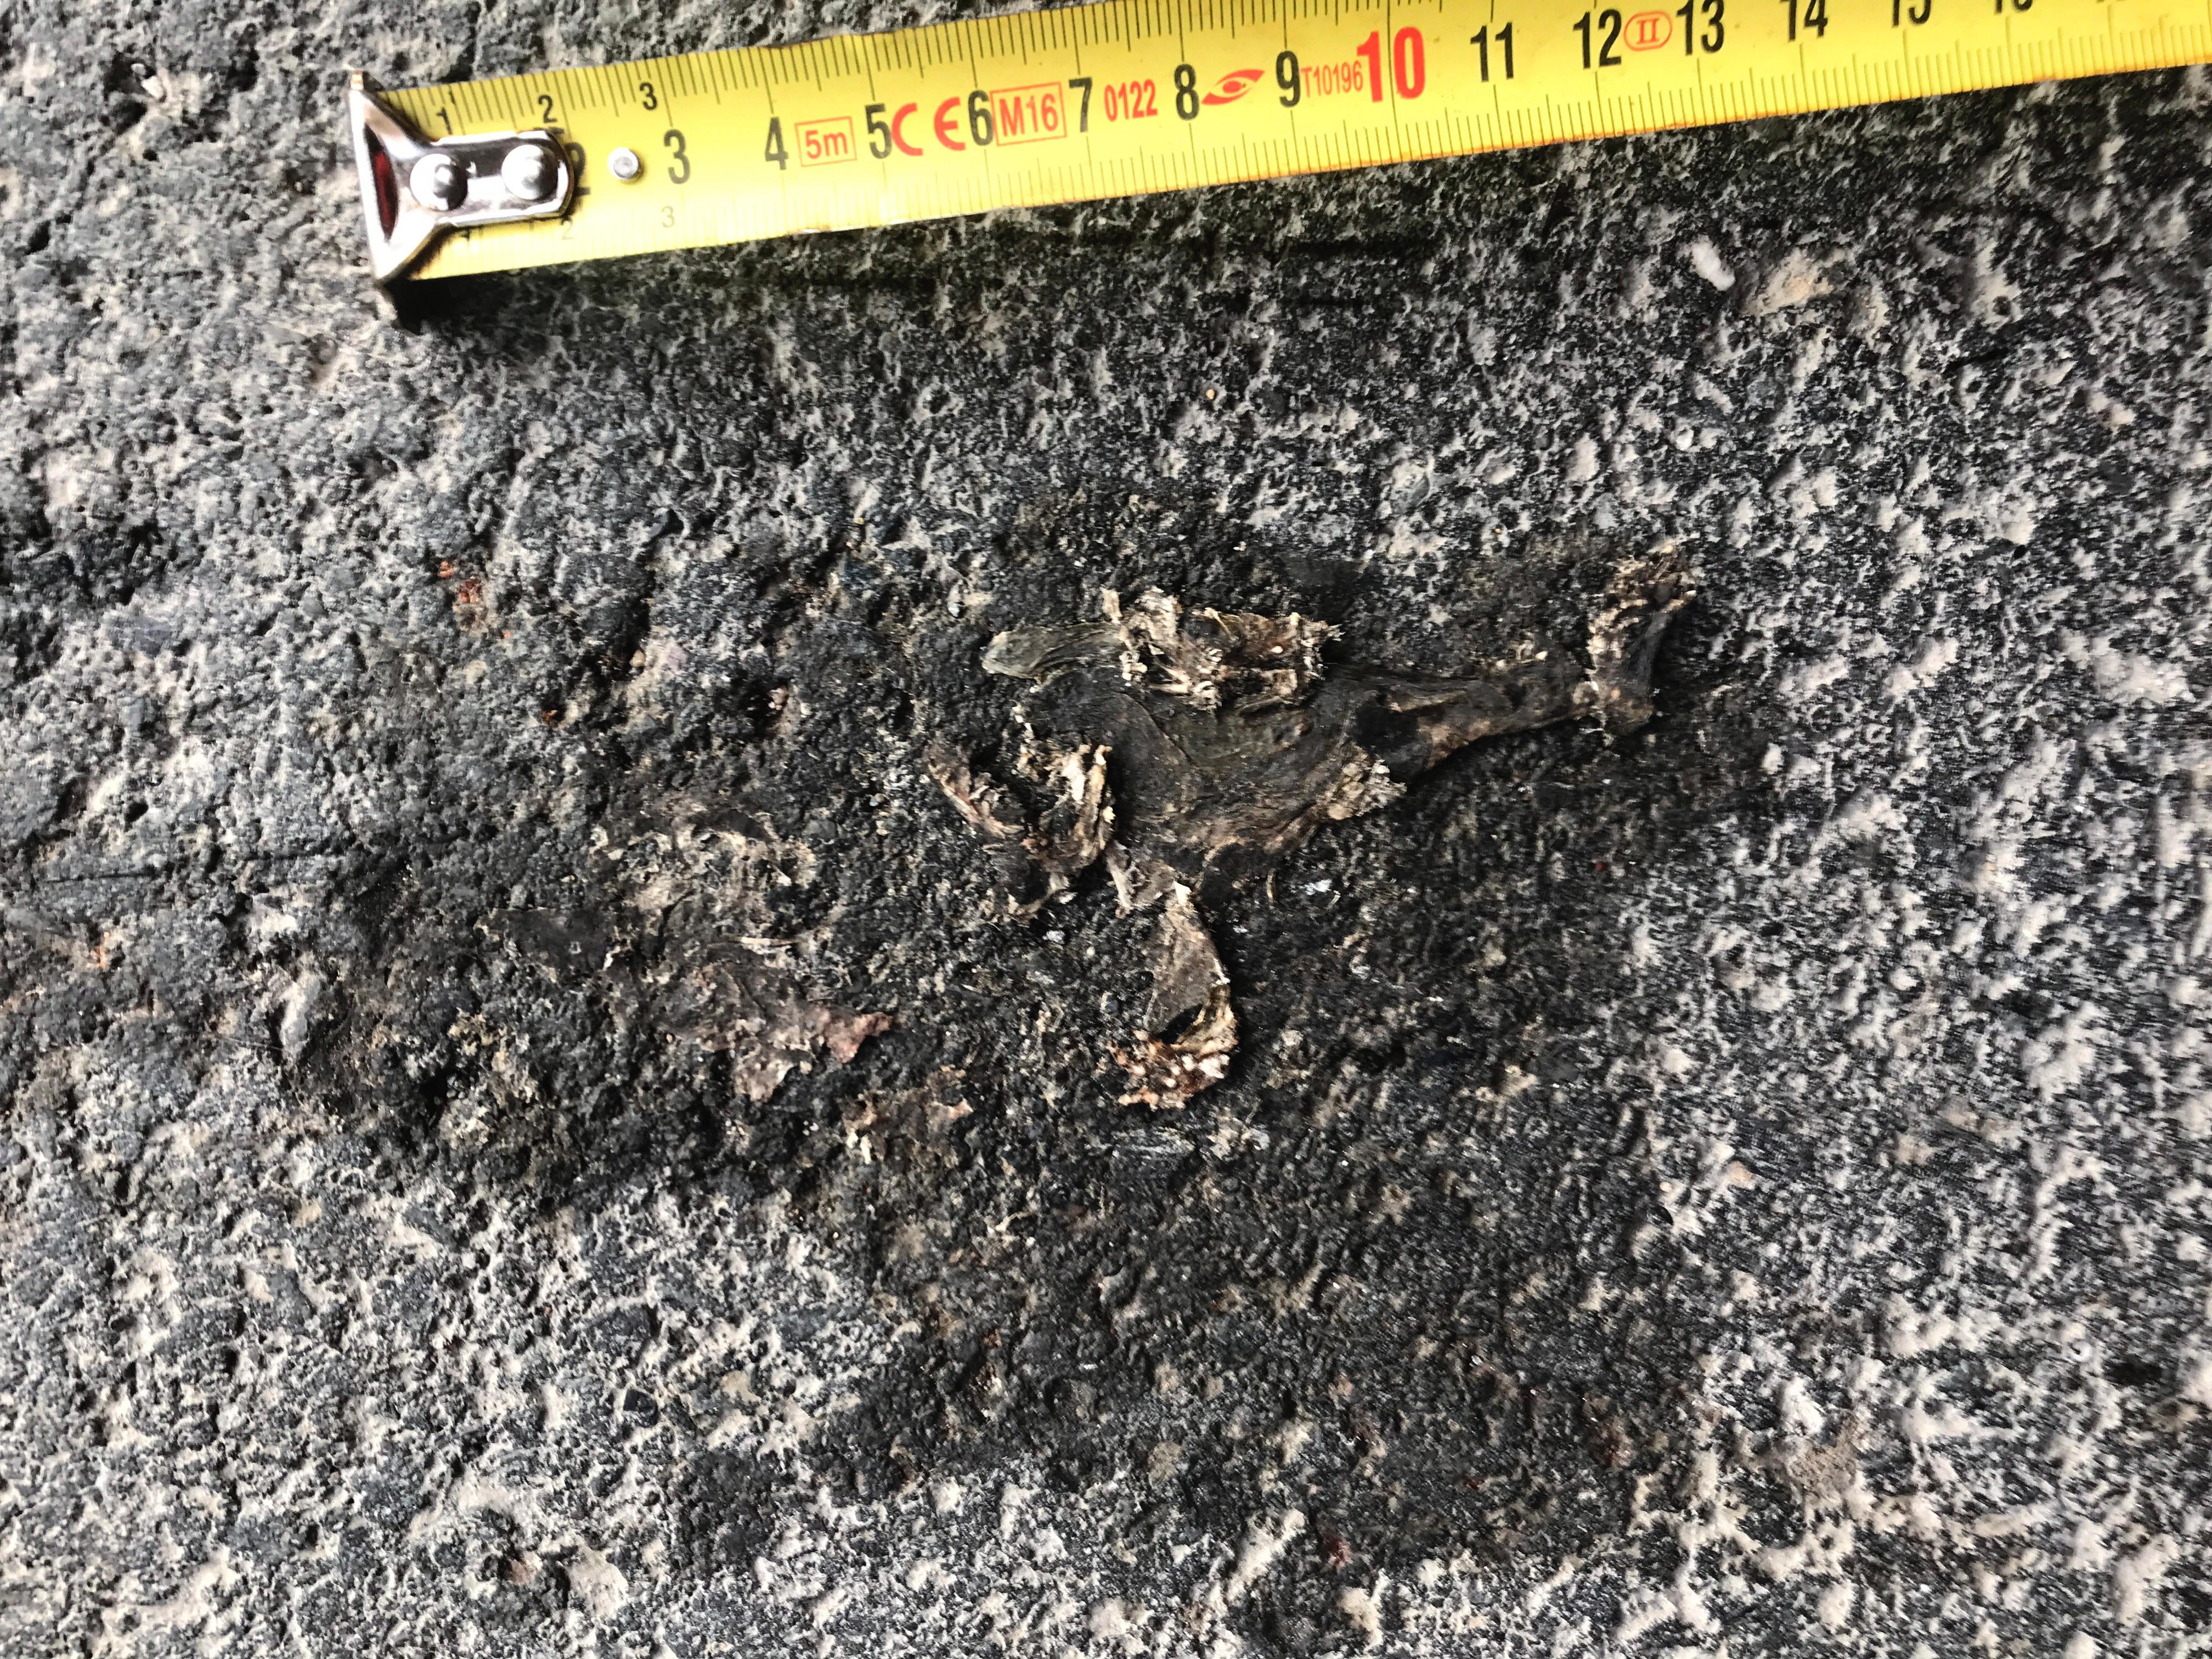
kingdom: Animalia
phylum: Chordata
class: Amphibia
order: Anura
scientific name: Anura
